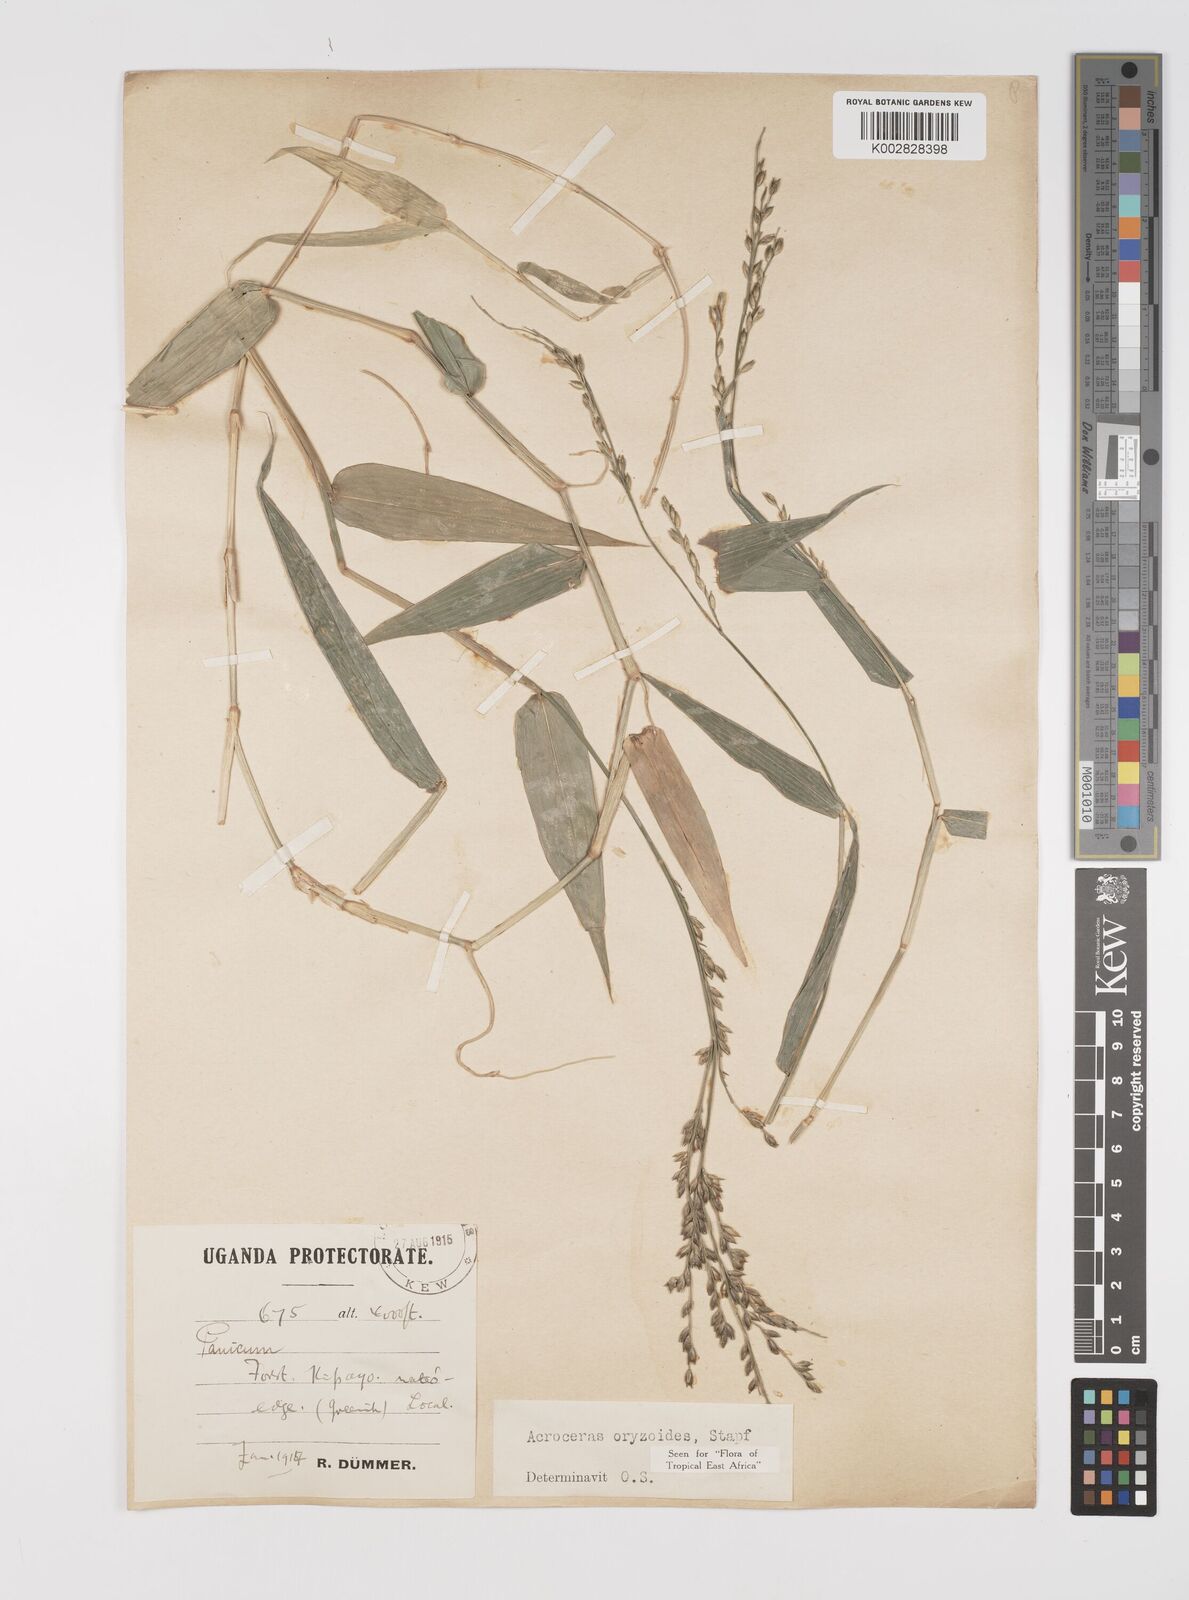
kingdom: Plantae
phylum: Tracheophyta
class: Liliopsida
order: Poales
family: Poaceae
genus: Acroceras
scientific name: Acroceras zizanioides
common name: Oat grass
